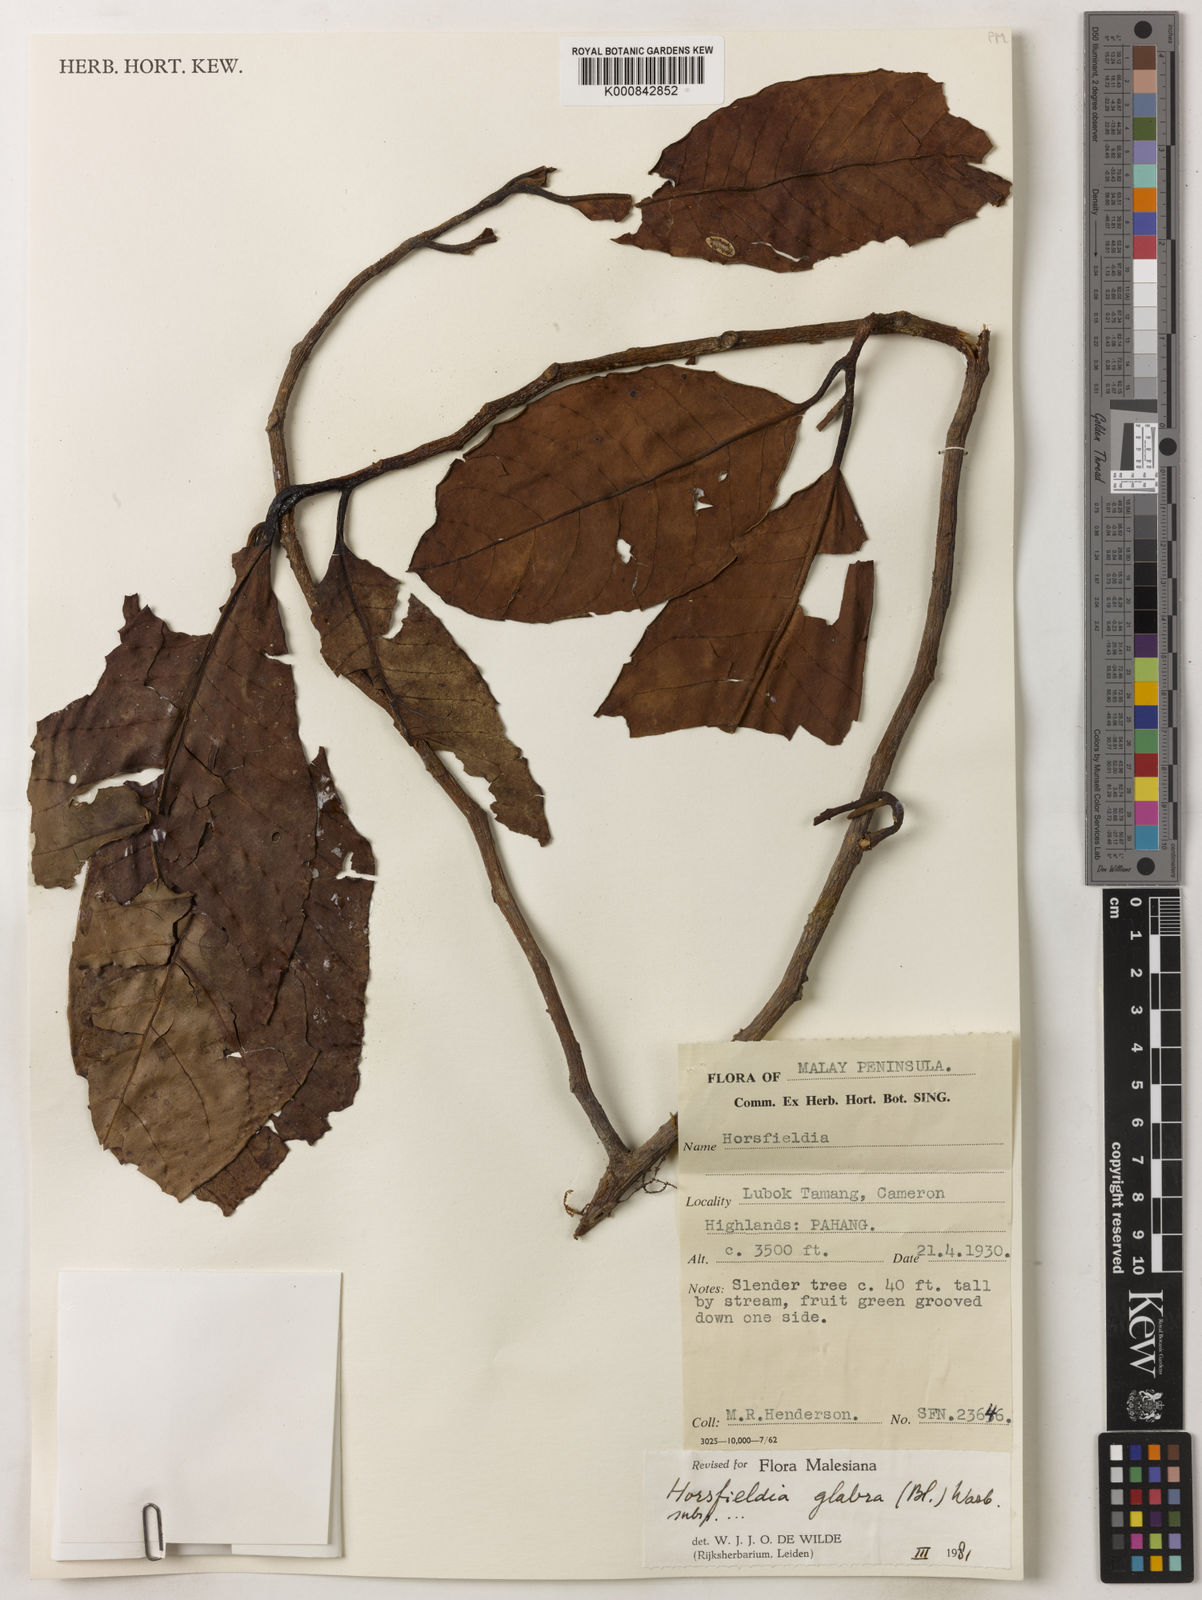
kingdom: Plantae
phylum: Tracheophyta
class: Magnoliopsida
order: Magnoliales
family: Myristicaceae
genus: Horsfieldia
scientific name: Horsfieldia
